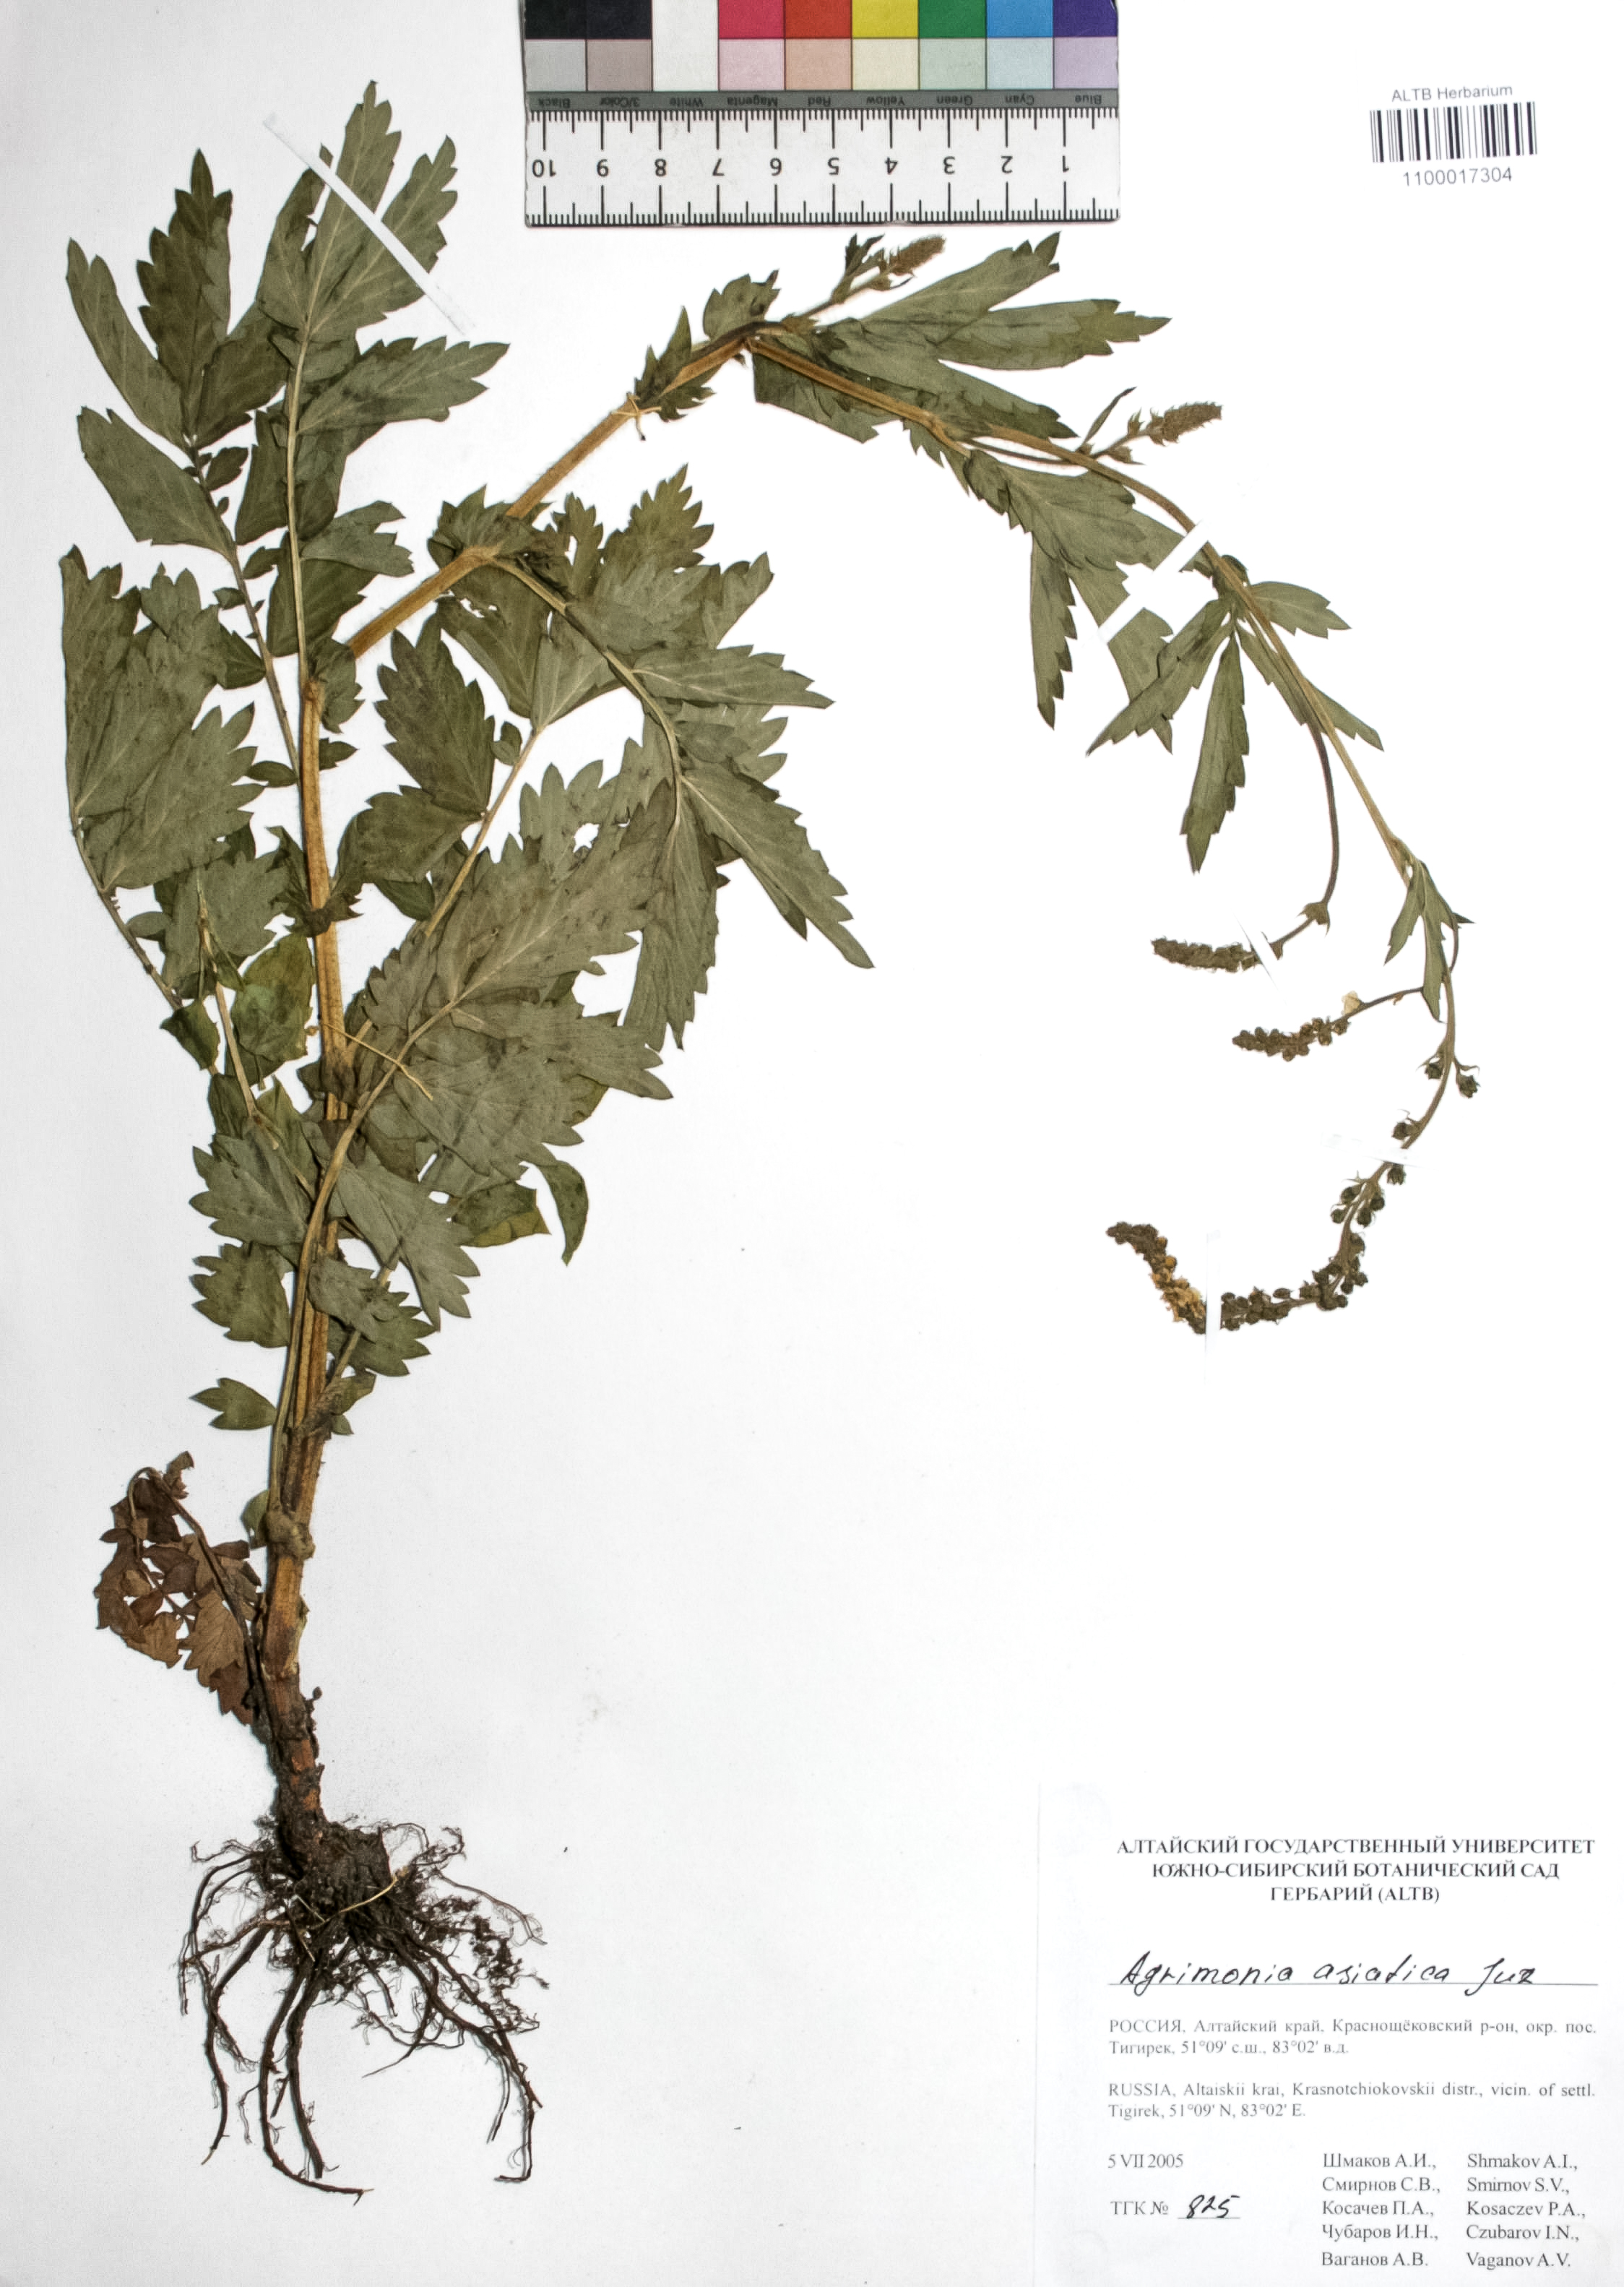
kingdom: Plantae
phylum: Tracheophyta
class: Magnoliopsida
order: Rosales
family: Rosaceae
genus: Agrimonia
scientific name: Agrimonia eupatoria
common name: Agrimony
